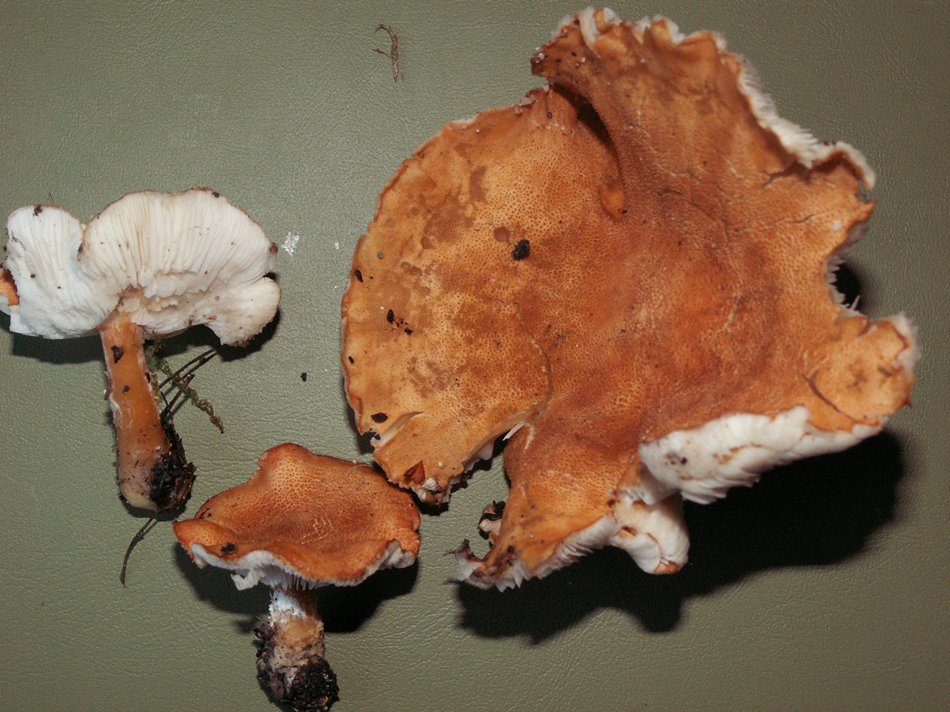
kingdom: Fungi
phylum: Basidiomycota
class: Agaricomycetes
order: Agaricales
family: Agaricaceae
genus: Cystodermella
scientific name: Cystodermella adnatifolia
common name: koralrød grynhat
